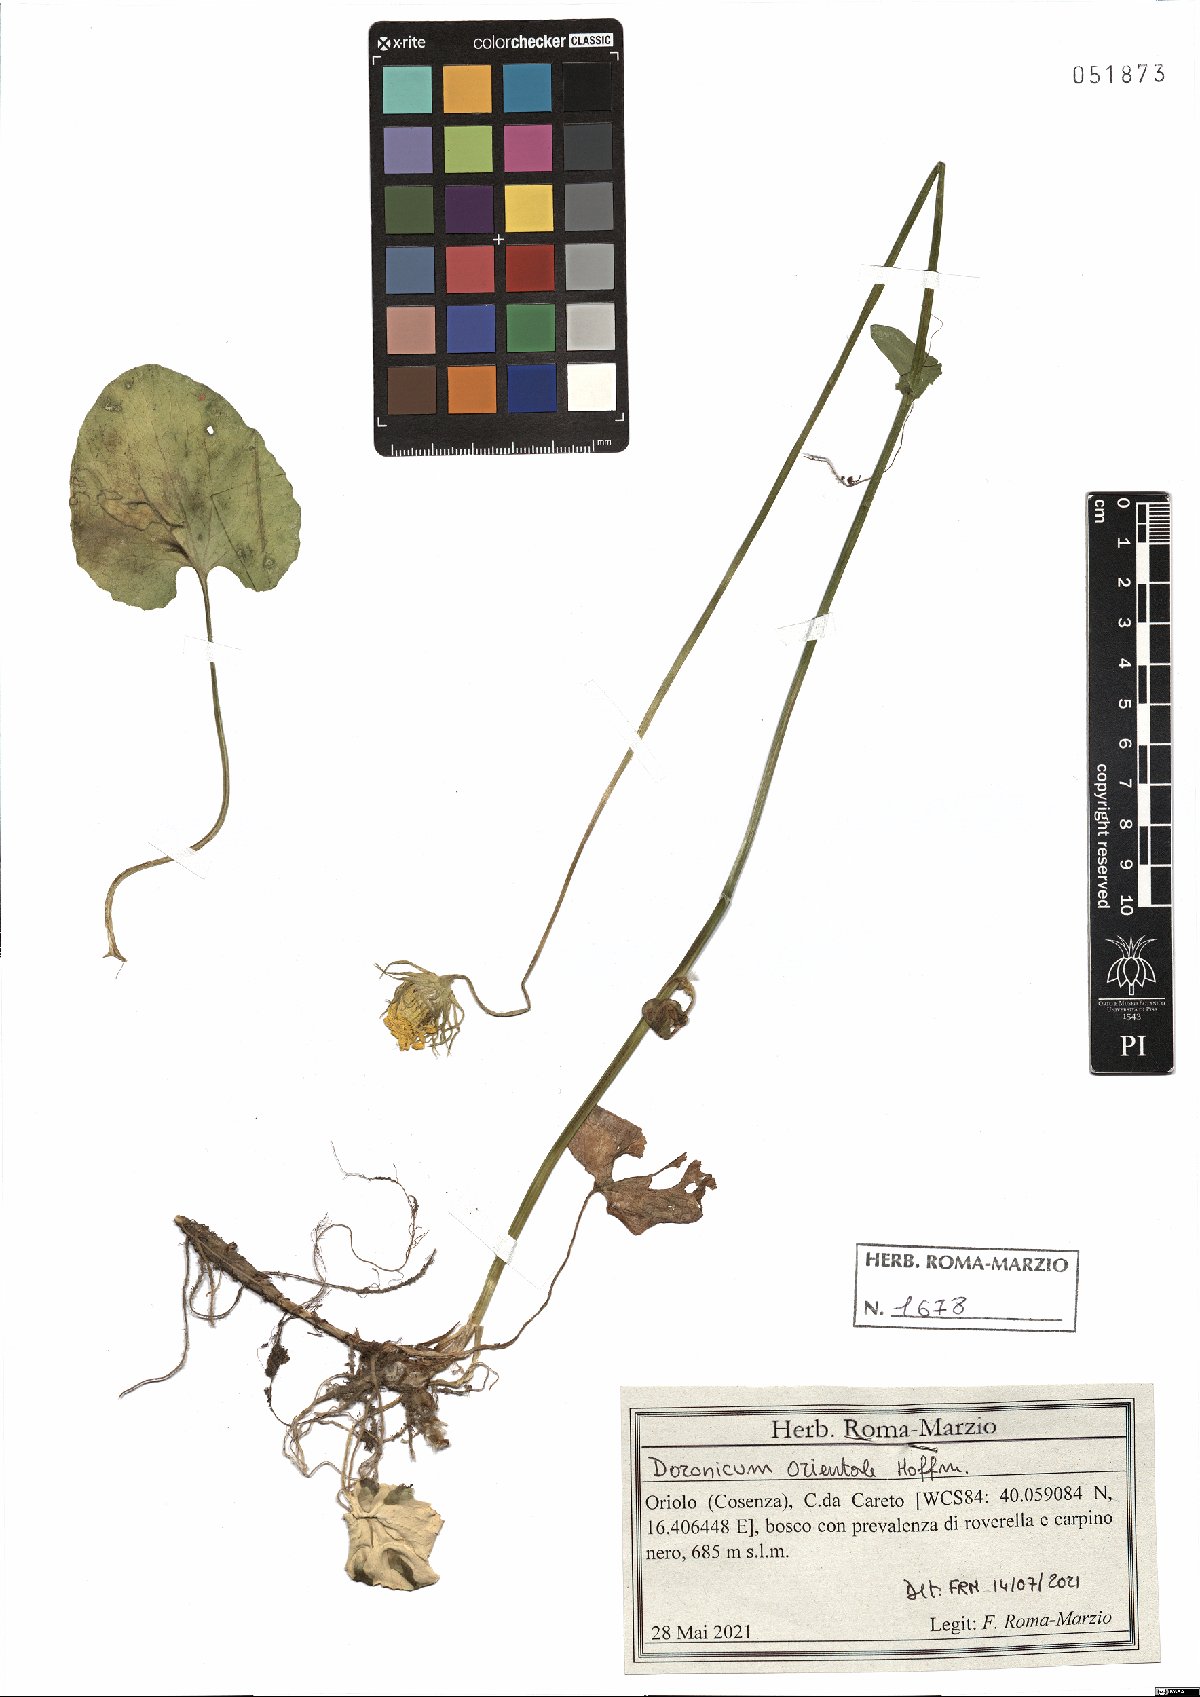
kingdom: Plantae
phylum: Tracheophyta
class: Magnoliopsida
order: Asterales
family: Asteraceae
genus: Doronicum
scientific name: Doronicum orientale
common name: Oriental leopard's-bane
